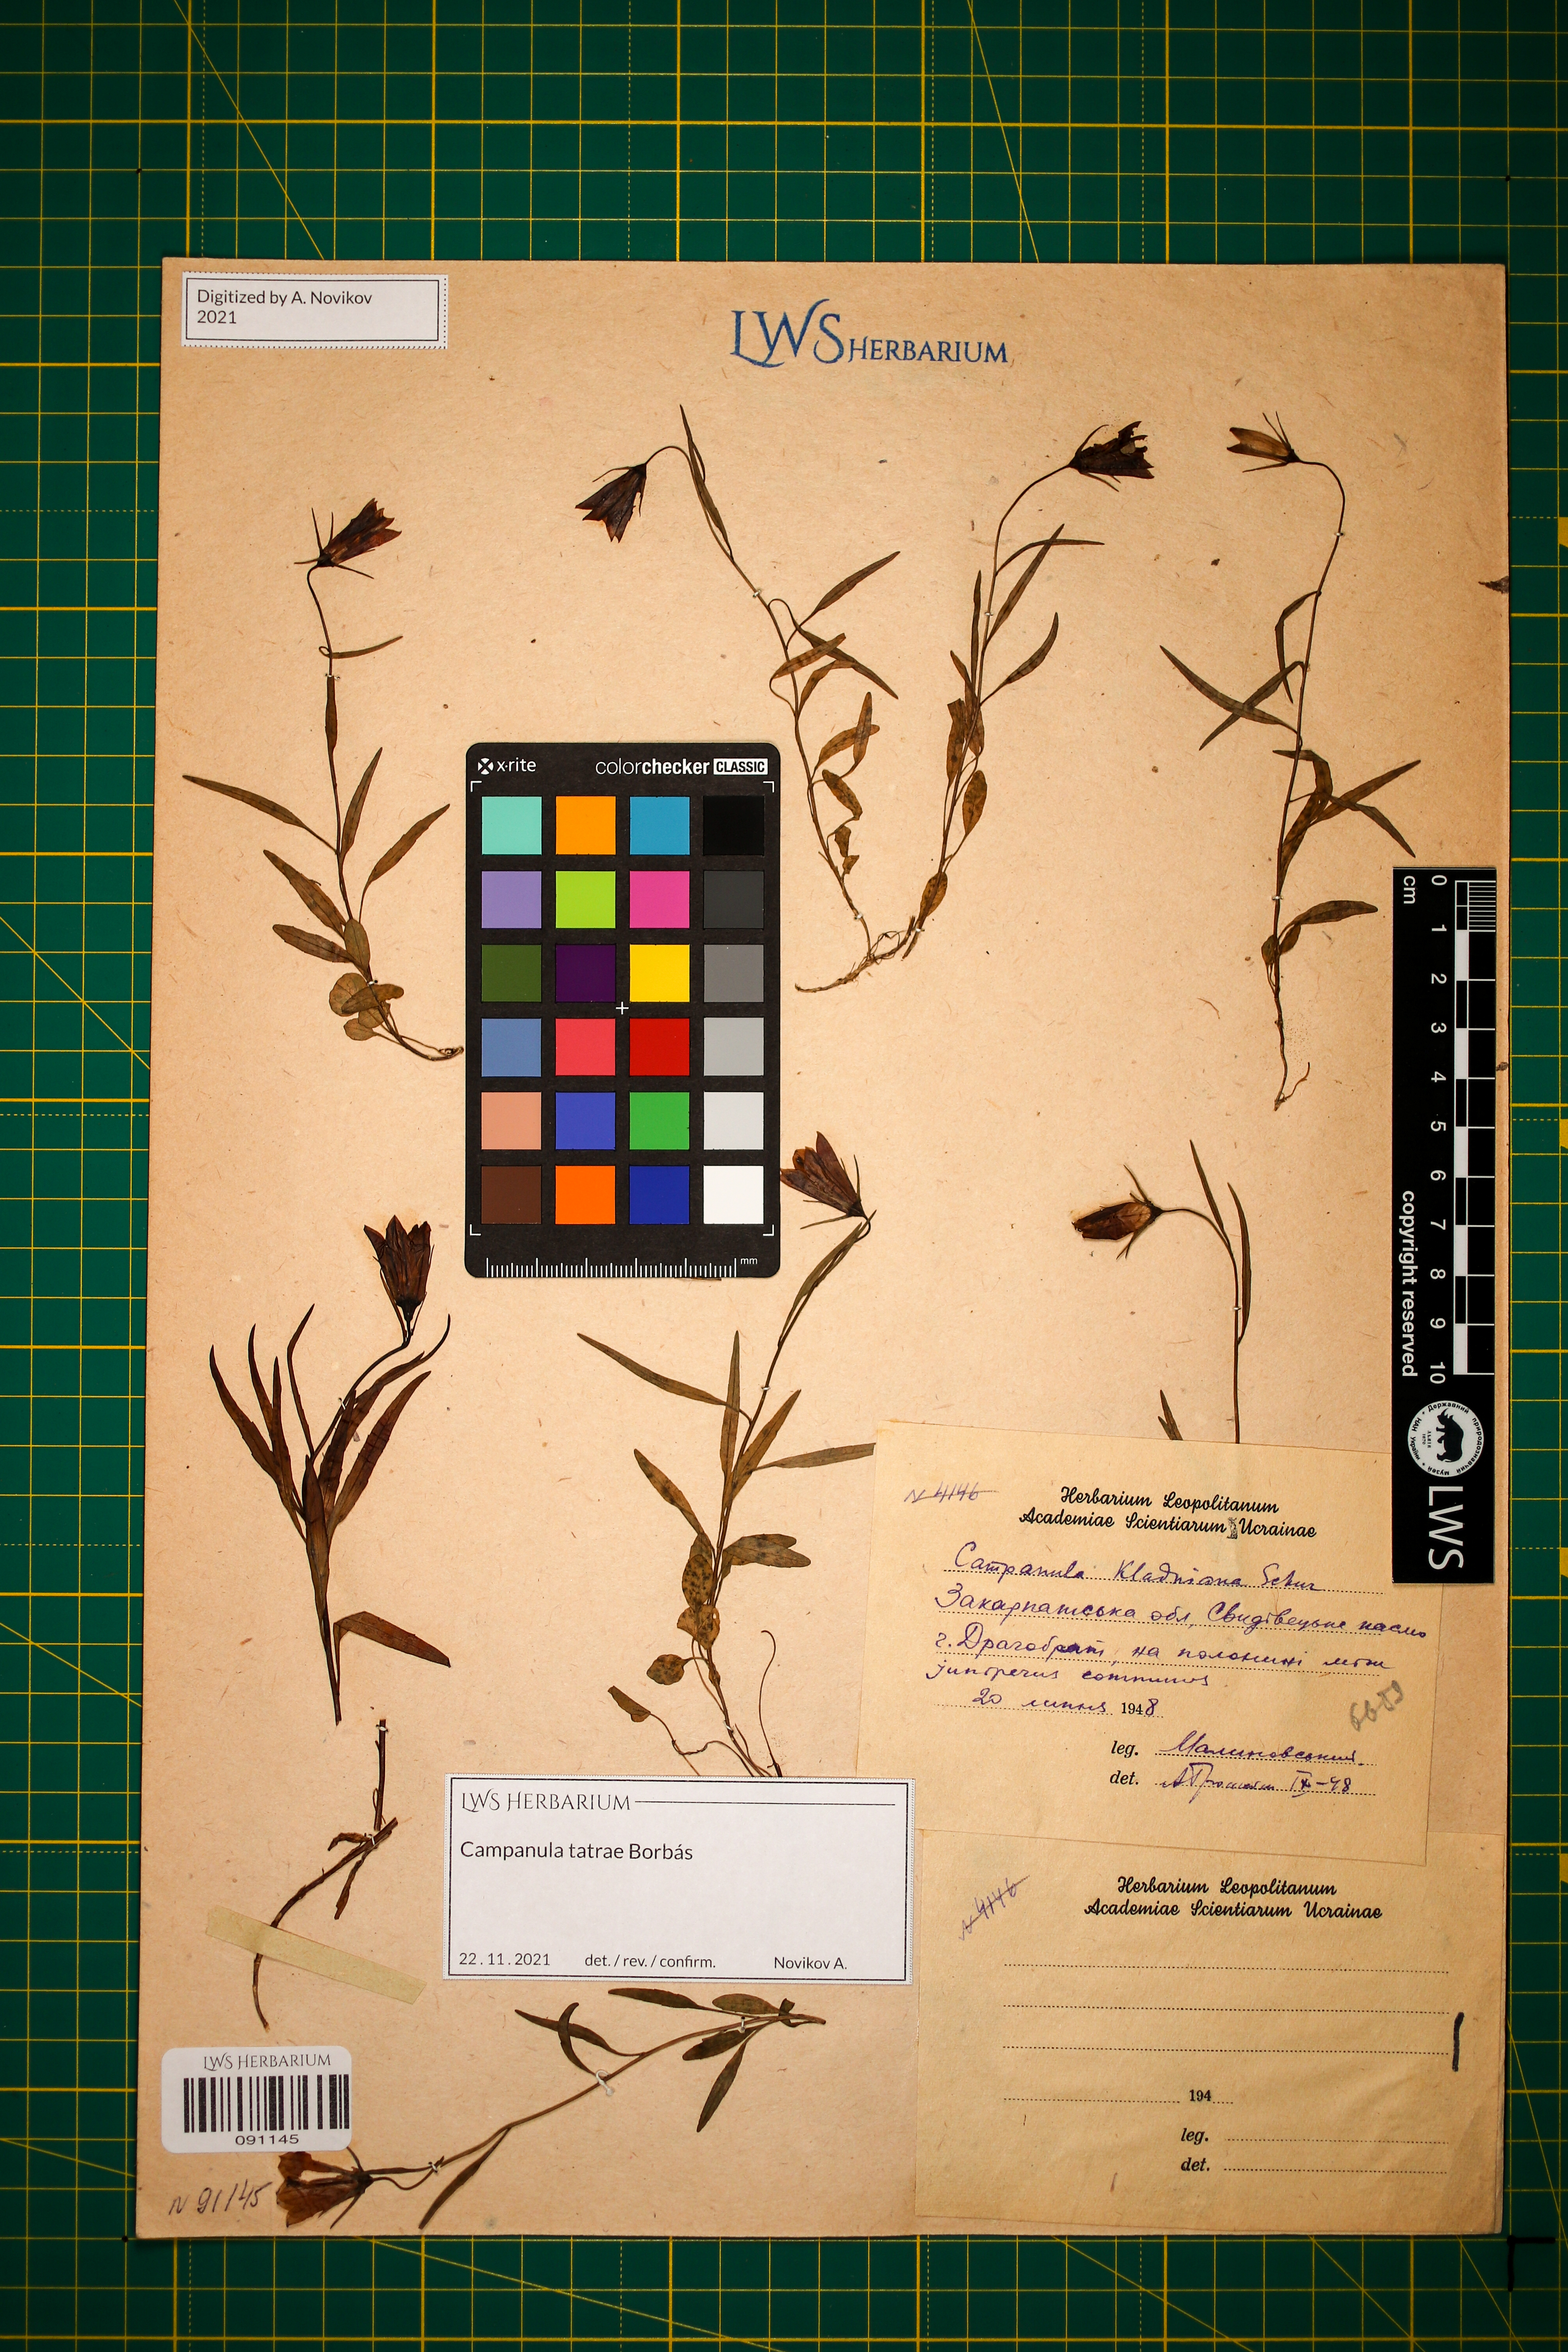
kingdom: Plantae
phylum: Tracheophyta
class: Magnoliopsida
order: Asterales
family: Campanulaceae
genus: Campanula
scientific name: Campanula kladniana
